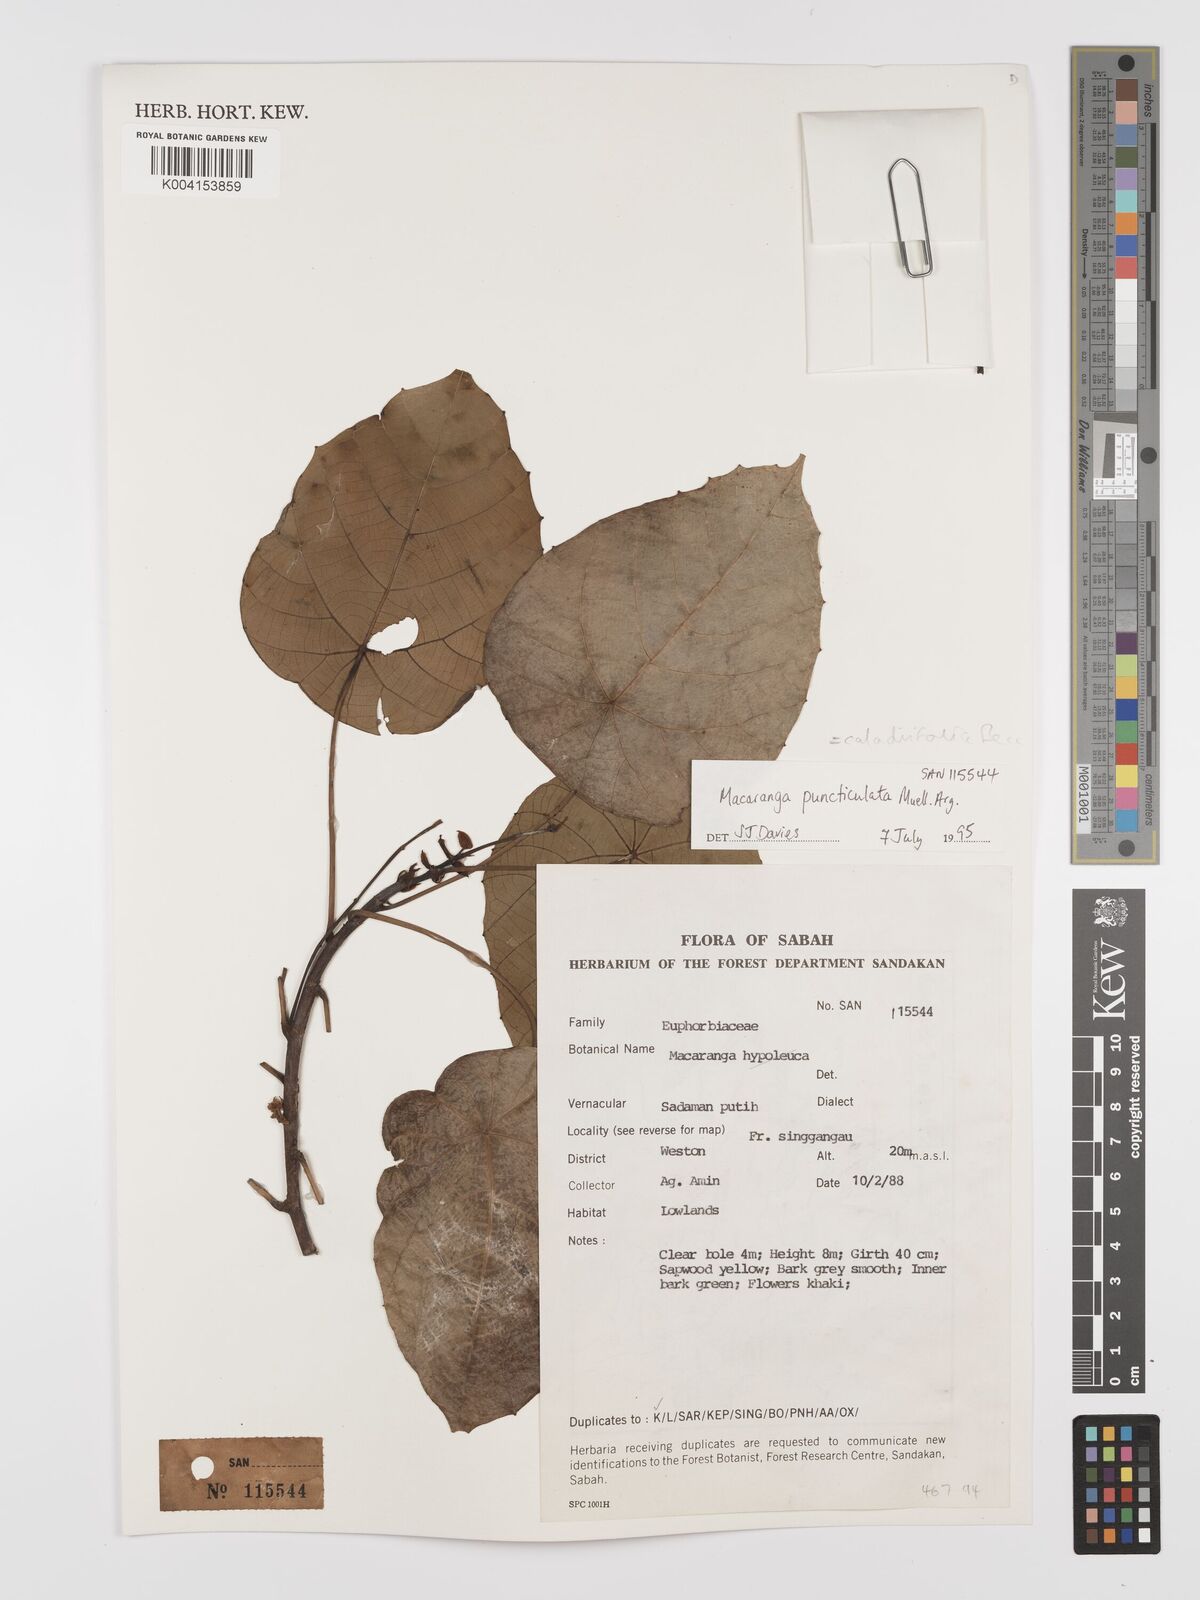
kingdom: Plantae
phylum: Tracheophyta
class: Magnoliopsida
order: Malpighiales
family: Euphorbiaceae
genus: Macaranga
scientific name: Macaranga caladiifolia
